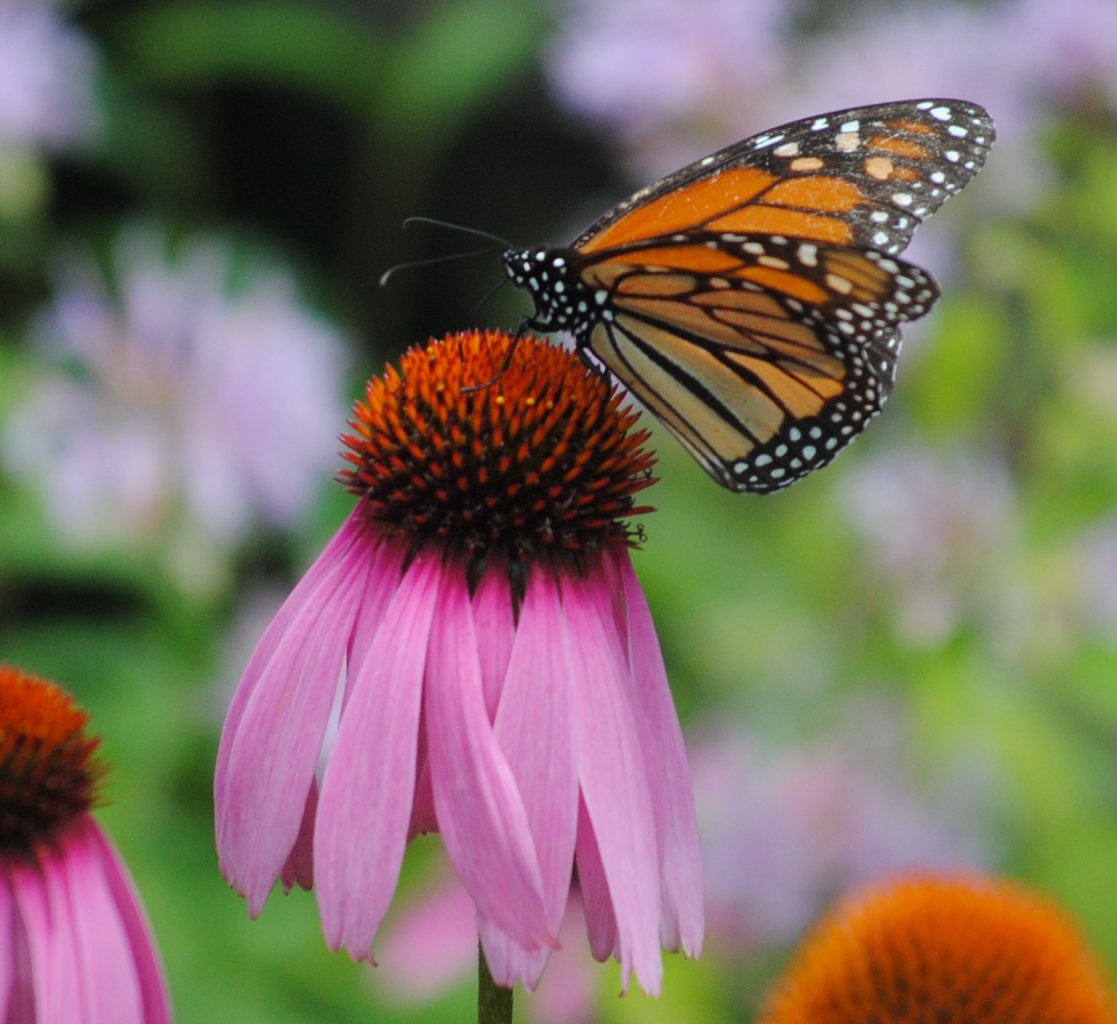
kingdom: Animalia
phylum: Arthropoda
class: Insecta
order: Lepidoptera
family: Nymphalidae
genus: Danaus
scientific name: Danaus plexippus
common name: Monarch
